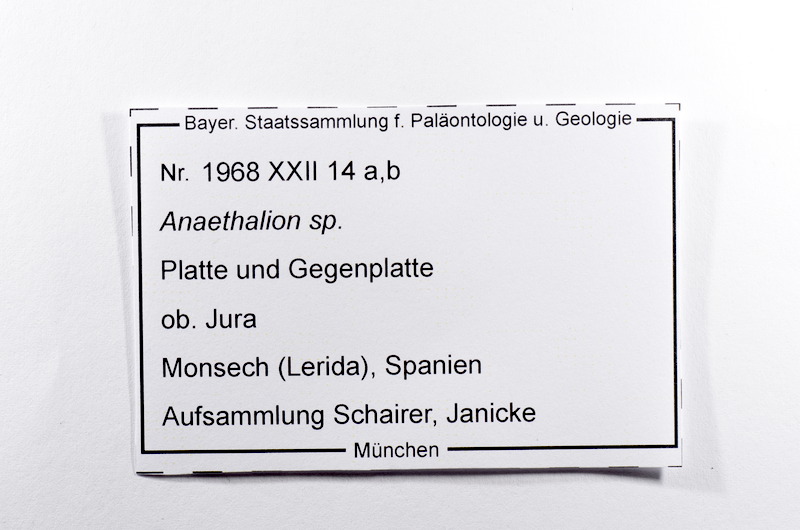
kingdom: Animalia
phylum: Chordata
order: Elopiformes
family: Anaethalionidae
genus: Anaethalion
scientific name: Anaethalion
